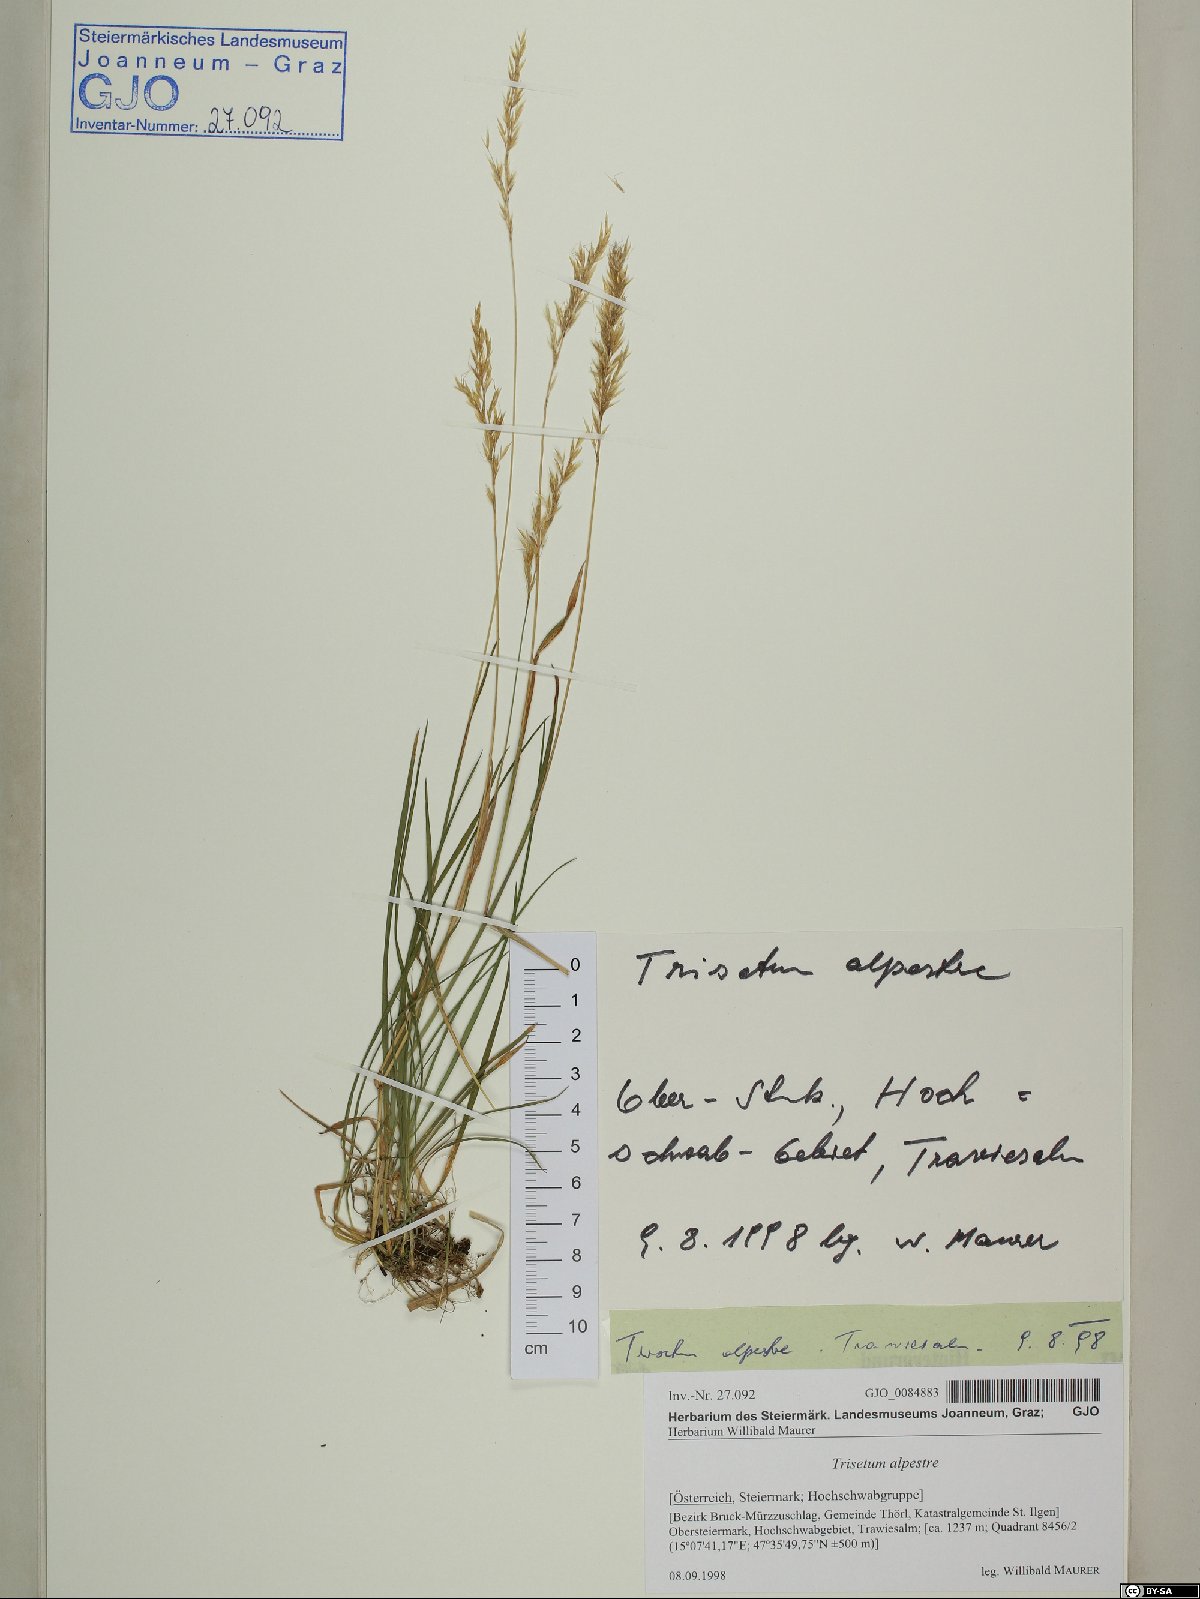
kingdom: Plantae
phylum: Tracheophyta
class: Liliopsida
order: Poales
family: Poaceae
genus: Trisetum
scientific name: Trisetum alpestre
